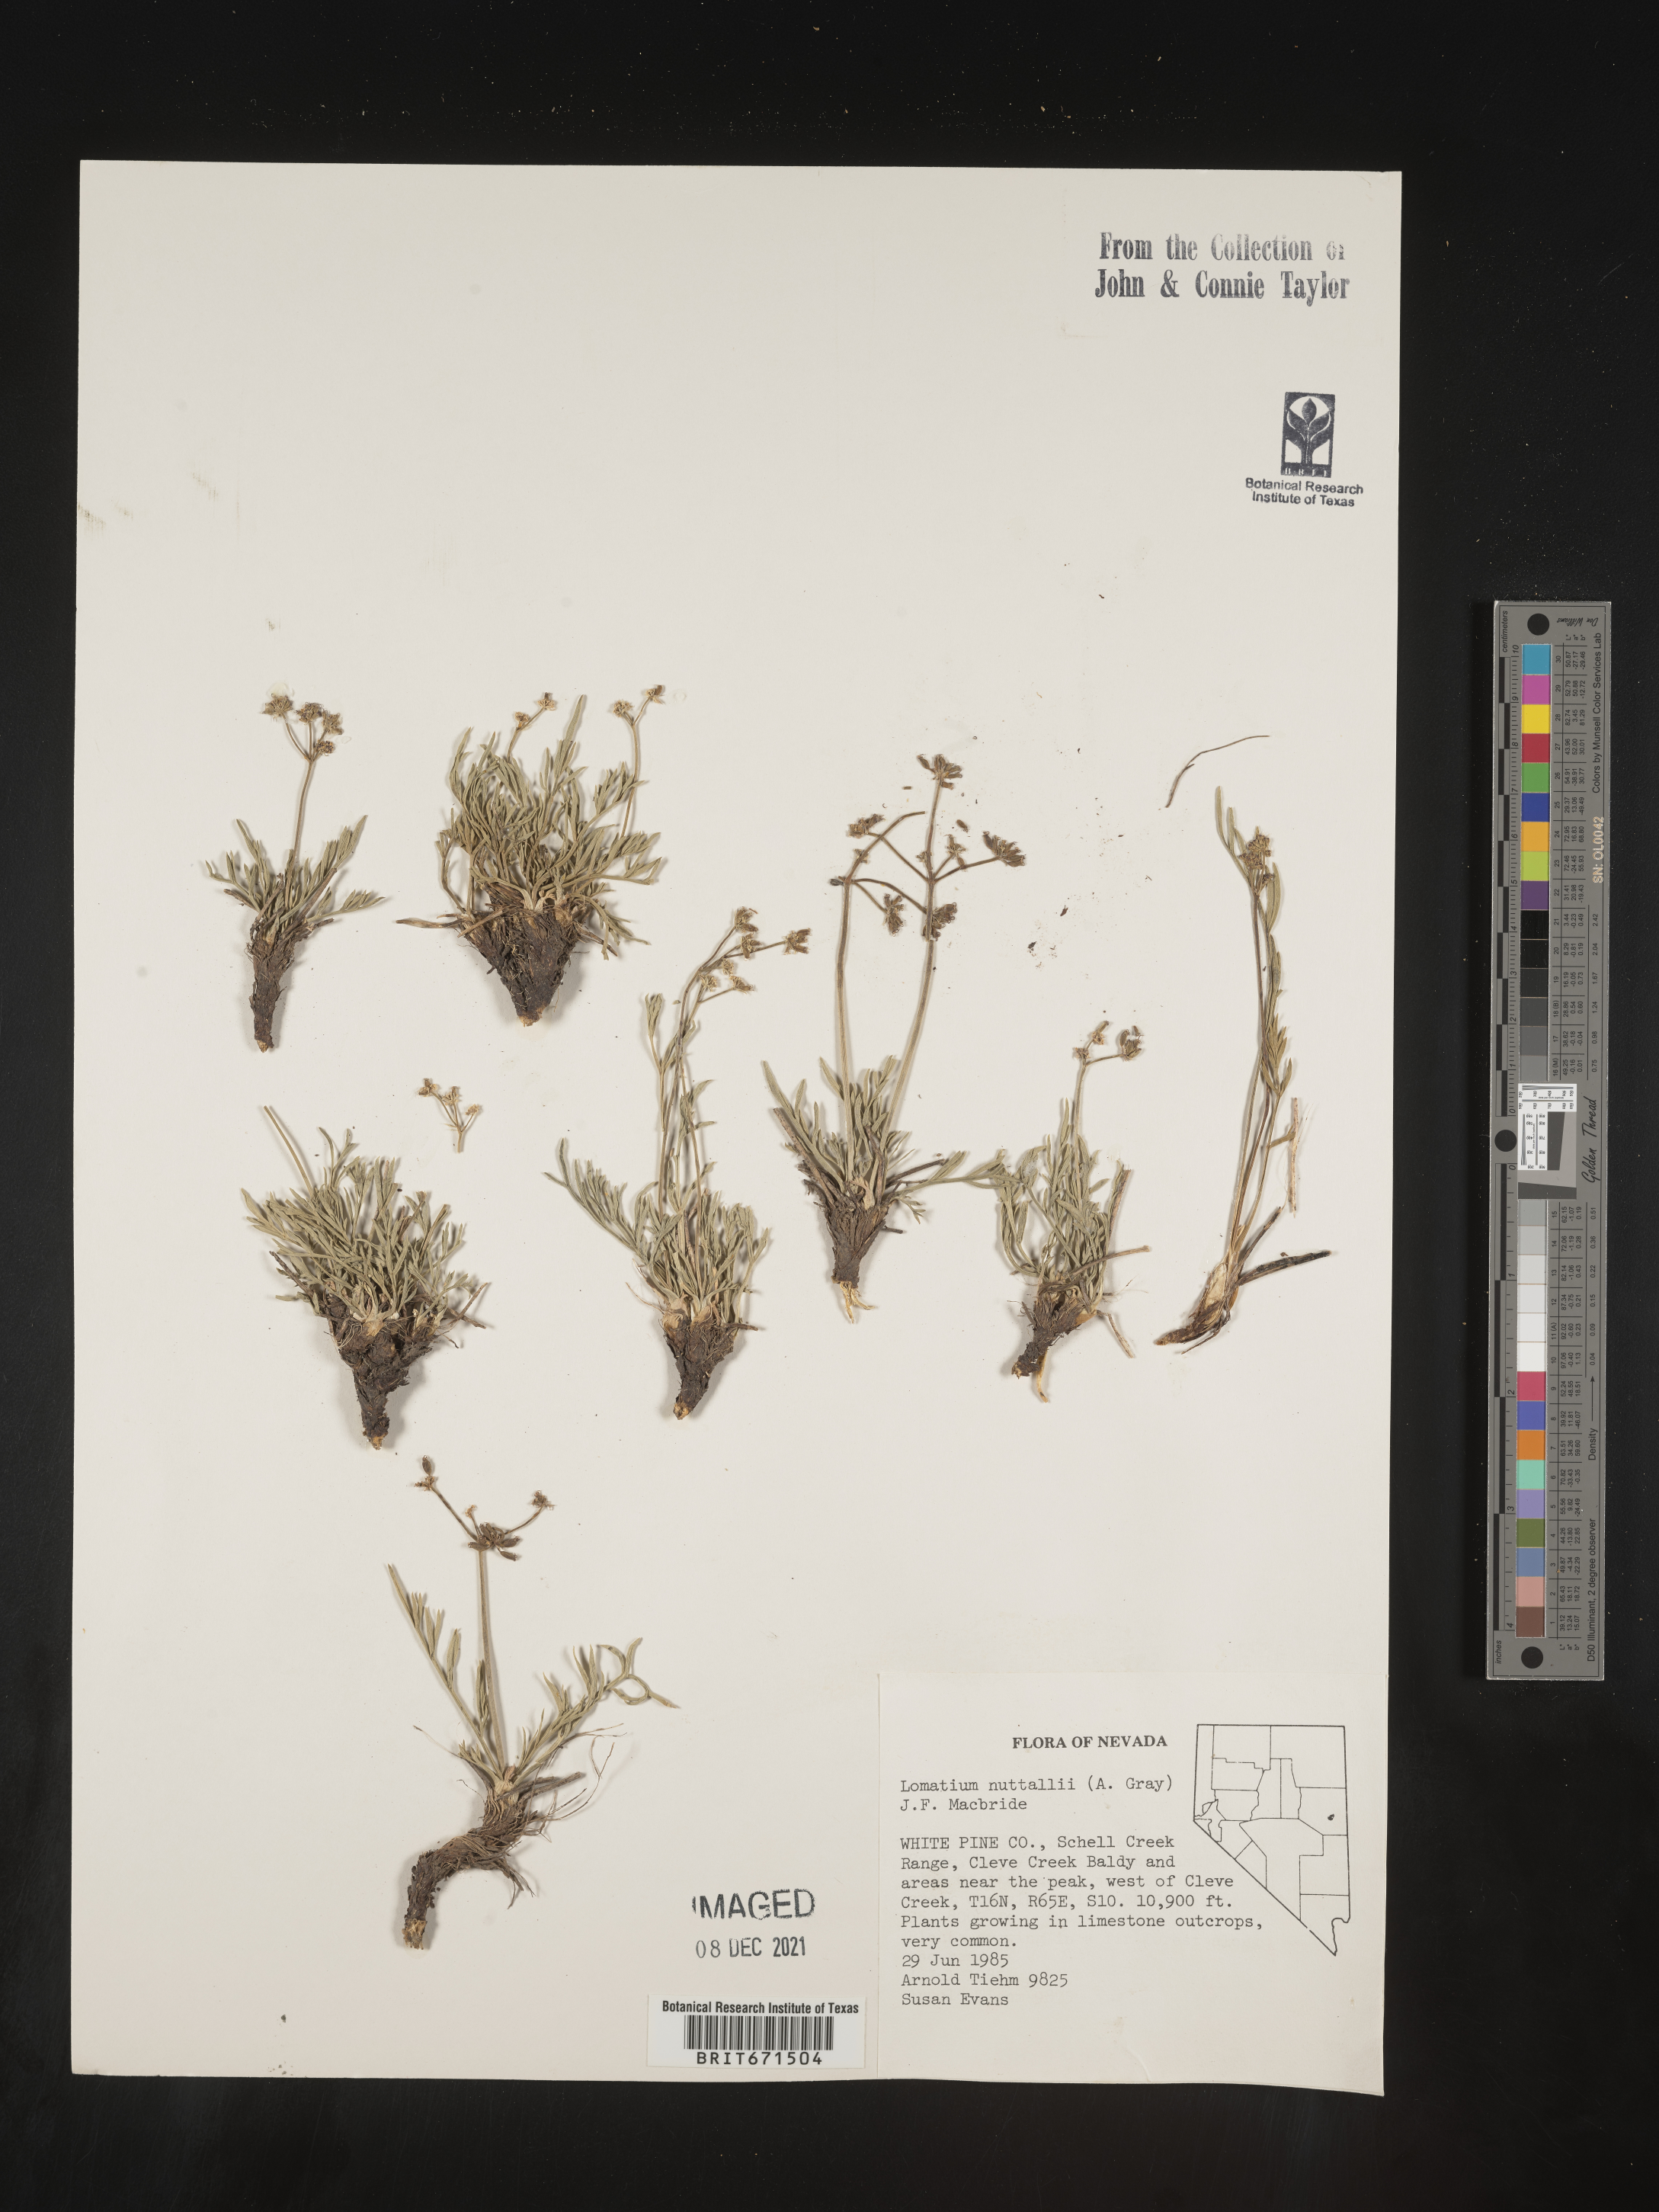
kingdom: Plantae
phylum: Tracheophyta
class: Magnoliopsida
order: Apiales
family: Apiaceae
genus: Lomatium
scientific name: Lomatium nuttallii
